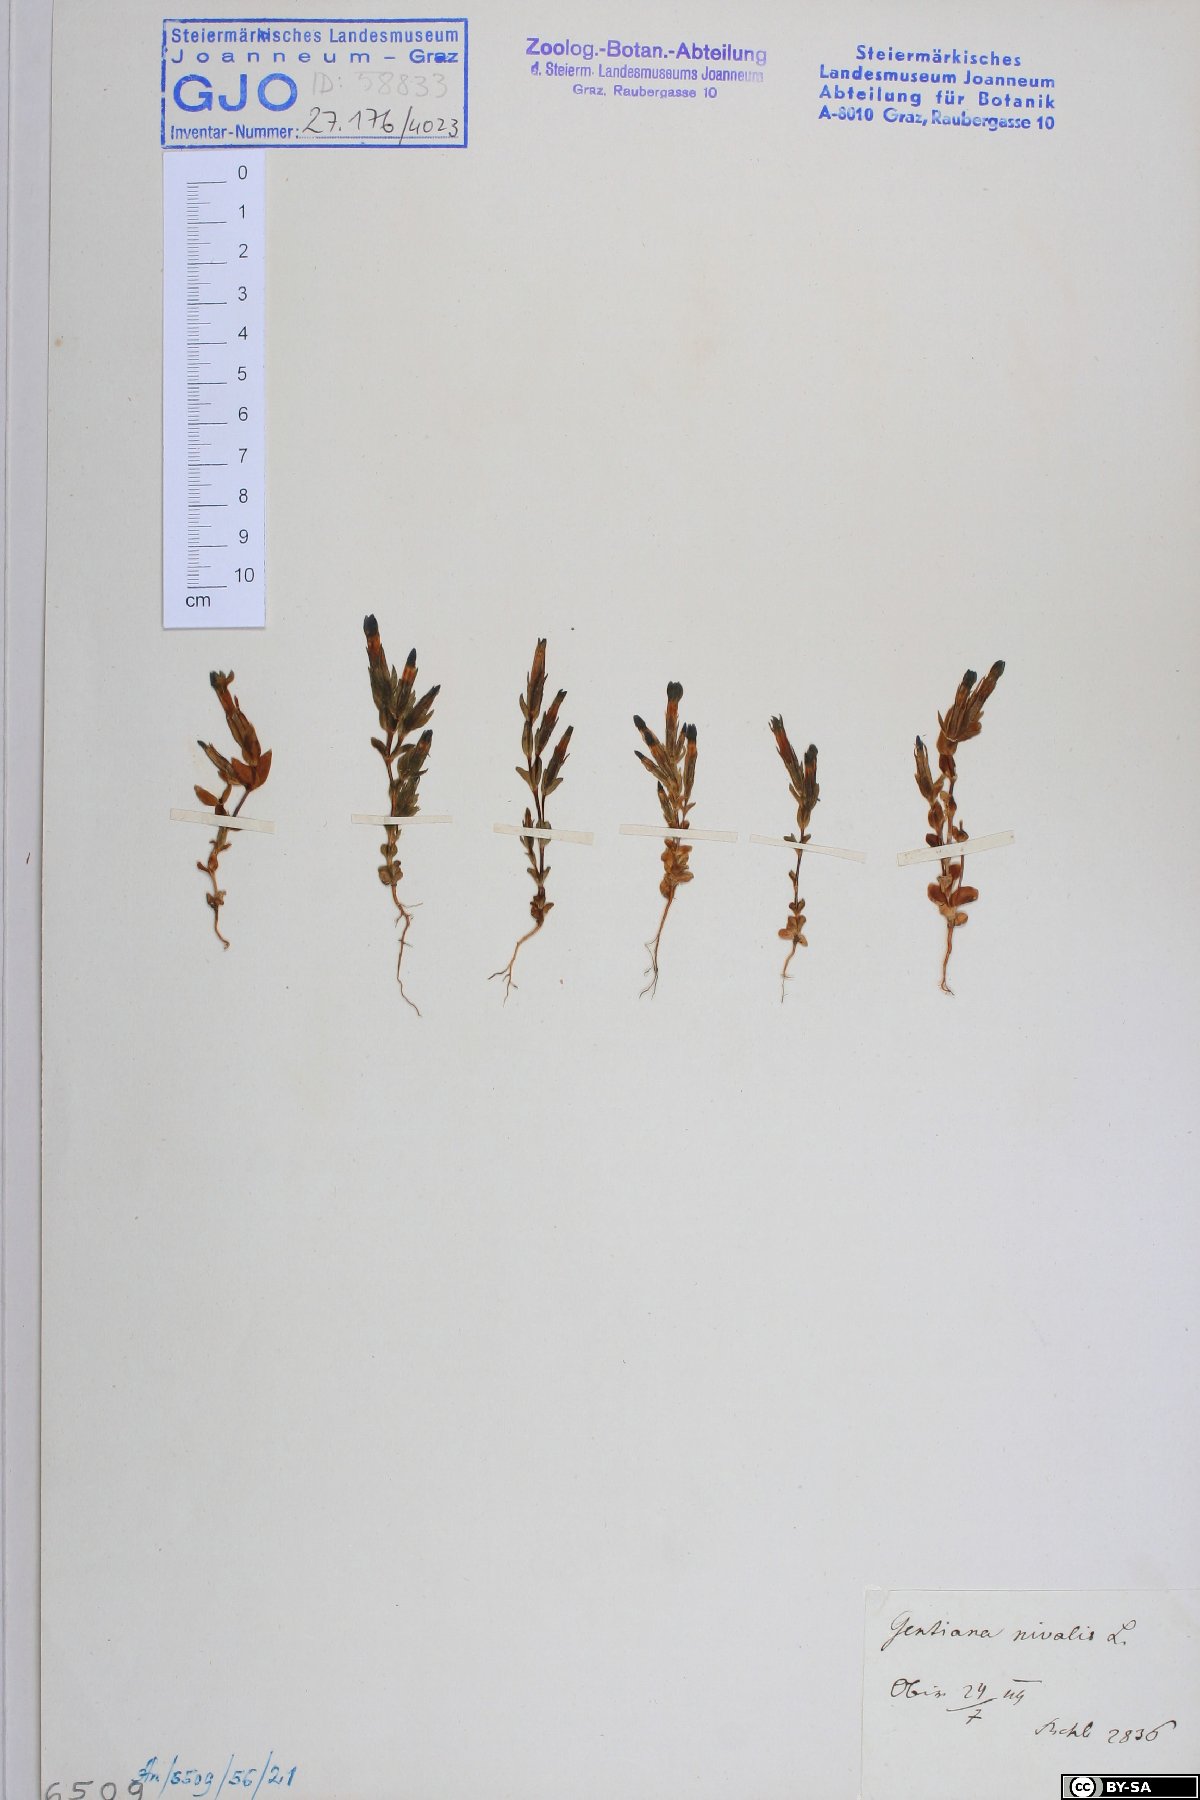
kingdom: Plantae
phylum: Tracheophyta
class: Magnoliopsida
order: Gentianales
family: Gentianaceae
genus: Gentiana
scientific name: Gentiana nivalis
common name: Alpine gentian
